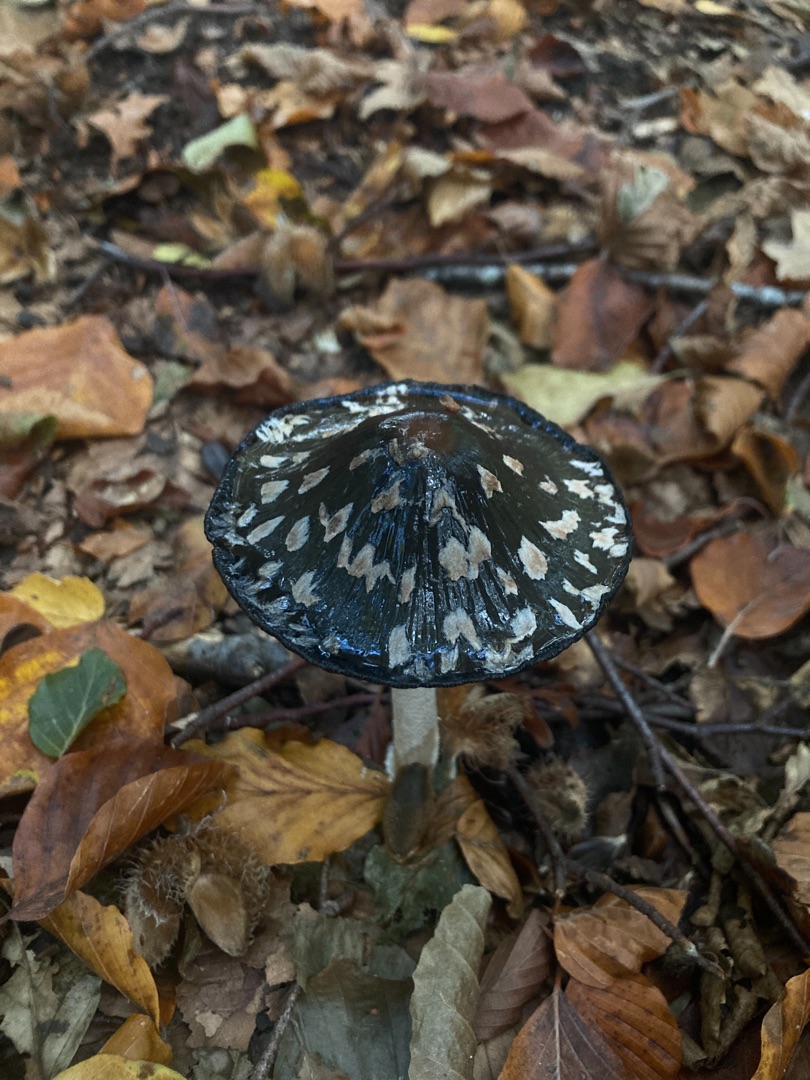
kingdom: Fungi
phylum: Basidiomycota
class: Agaricomycetes
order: Agaricales
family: Psathyrellaceae
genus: Coprinopsis
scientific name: Coprinopsis picacea
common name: Skade-blækhat
